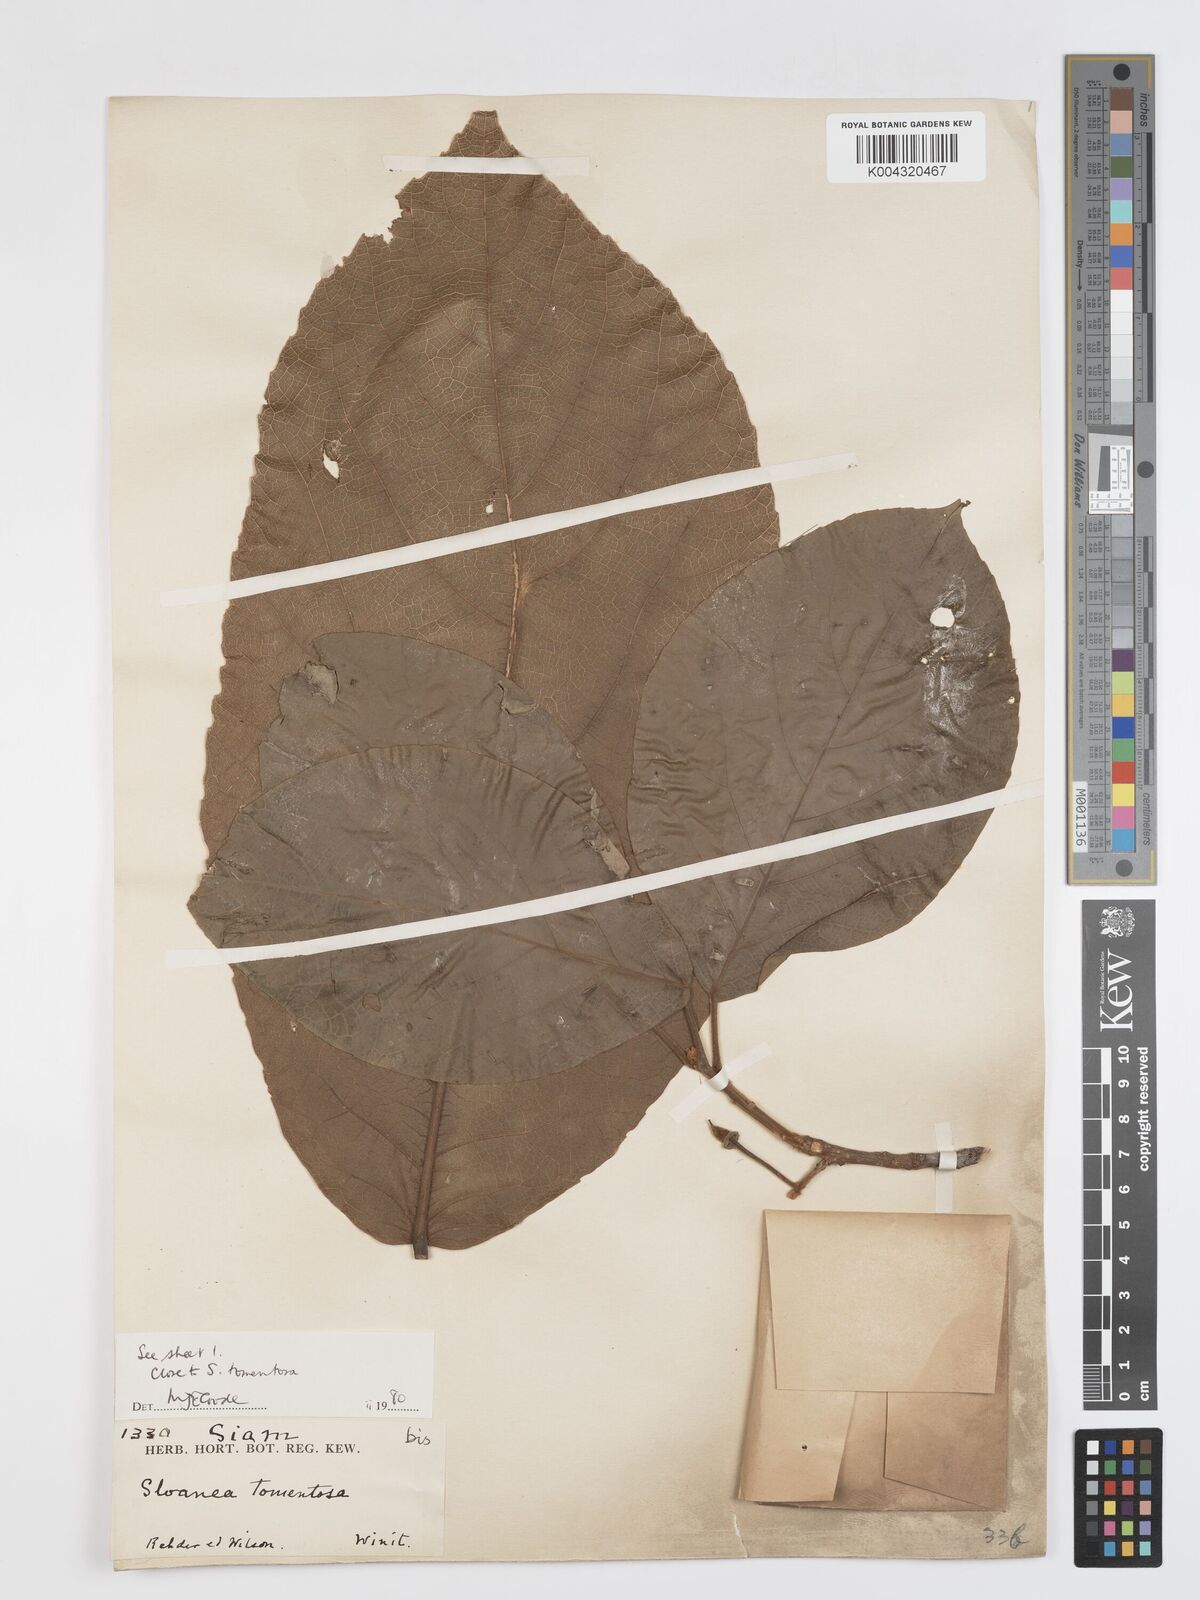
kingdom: Plantae
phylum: Tracheophyta
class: Magnoliopsida
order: Oxalidales
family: Elaeocarpaceae
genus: Sloanea
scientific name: Sloanea tomentosa
